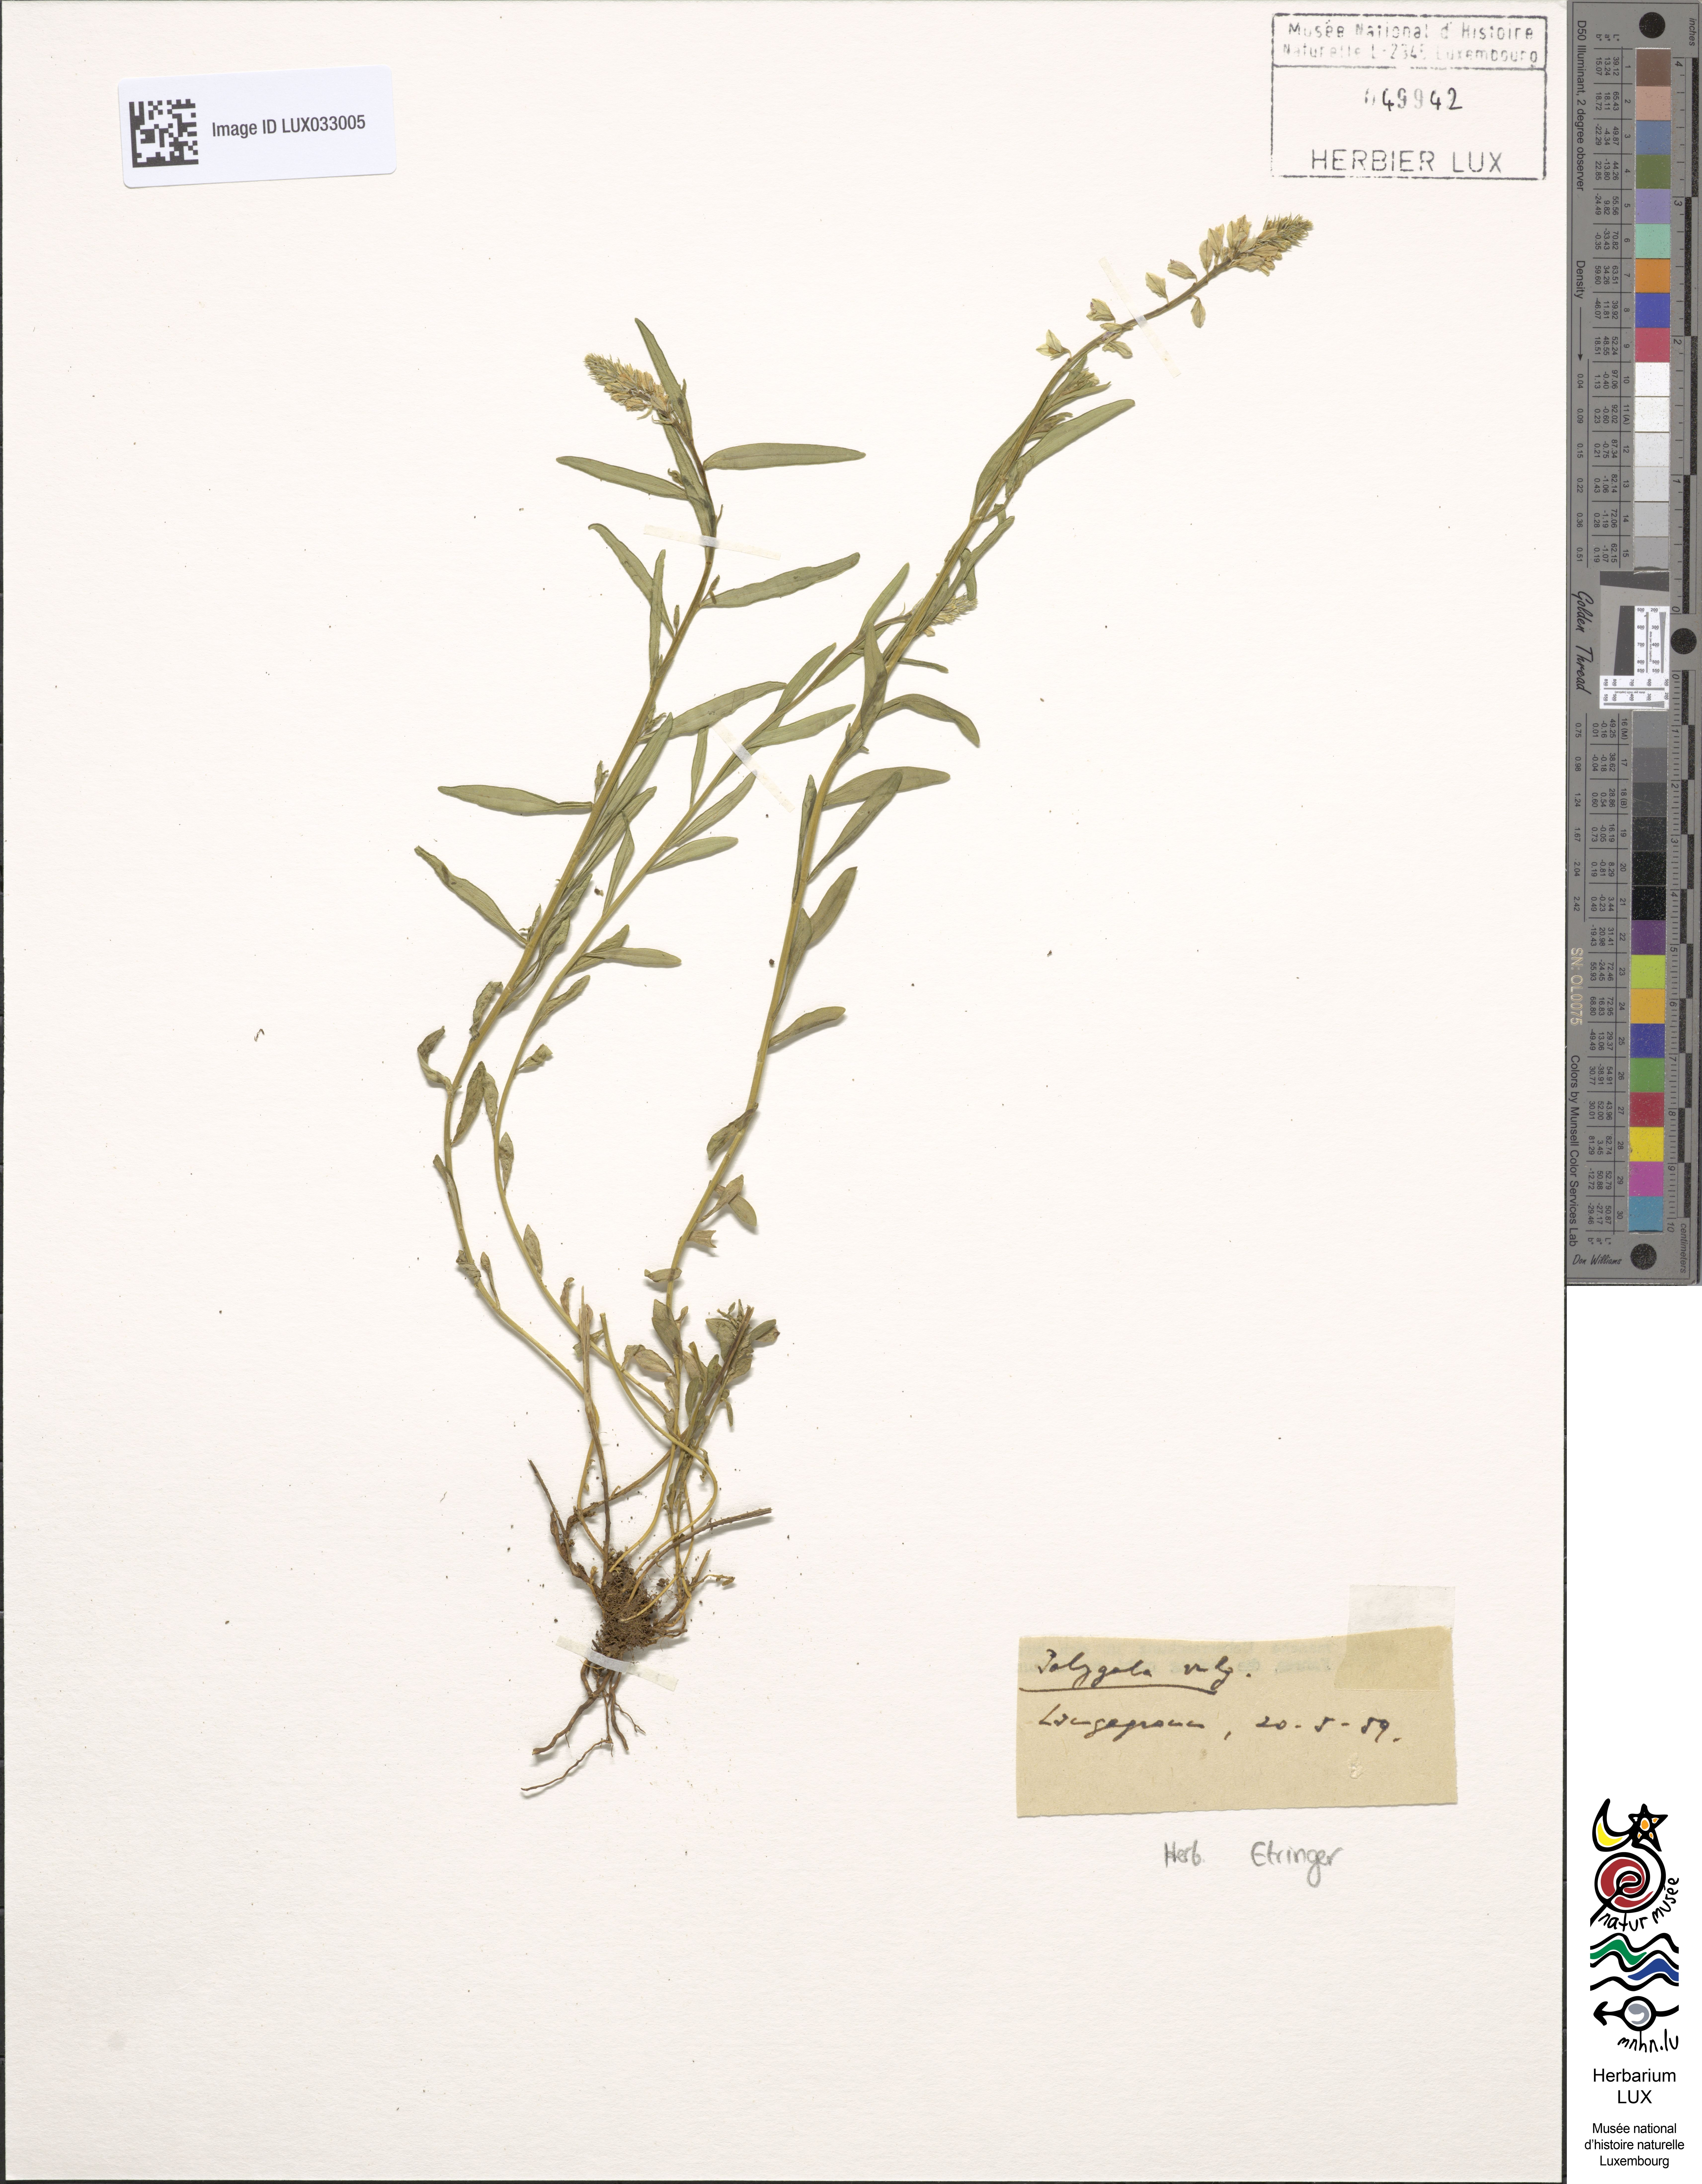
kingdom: Plantae
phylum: Tracheophyta
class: Magnoliopsida
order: Fabales
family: Polygalaceae
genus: Polygala
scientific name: Polygala vulgaris
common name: Common milkwort
